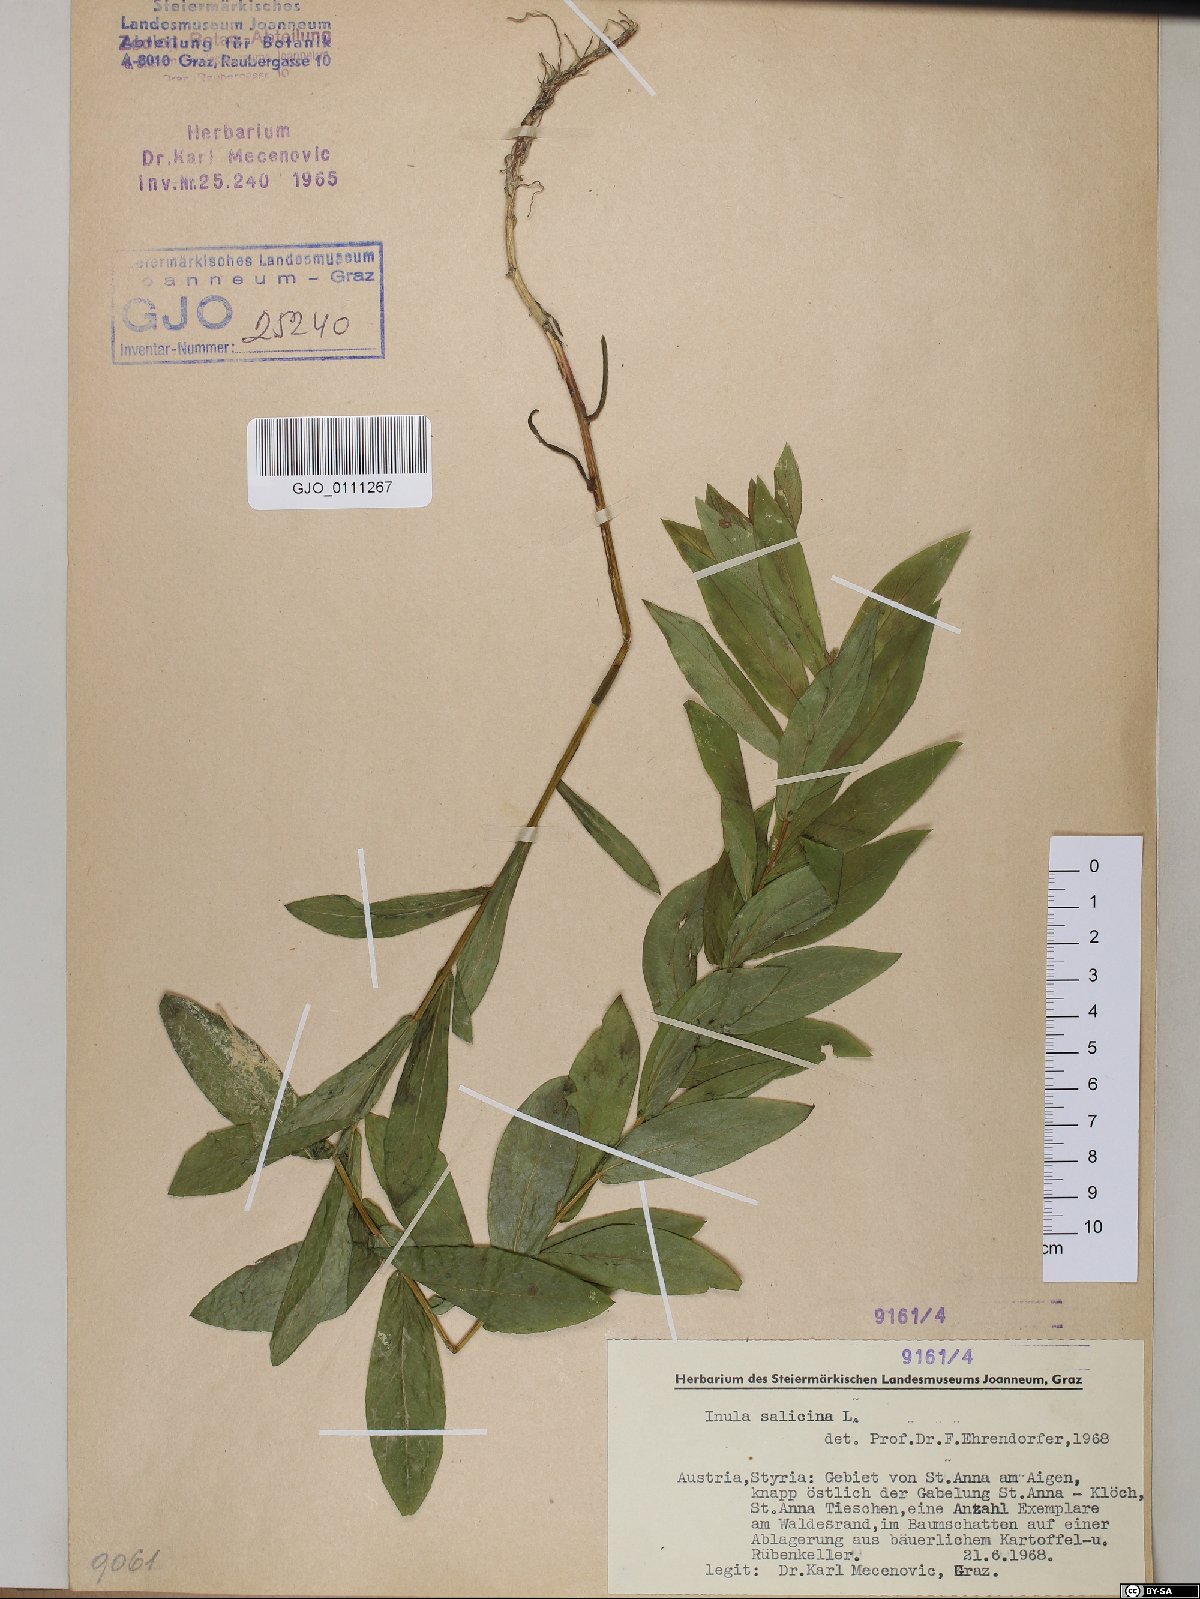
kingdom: Plantae
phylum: Tracheophyta
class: Magnoliopsida
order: Asterales
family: Asteraceae
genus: Pentanema
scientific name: Pentanema salicinum
